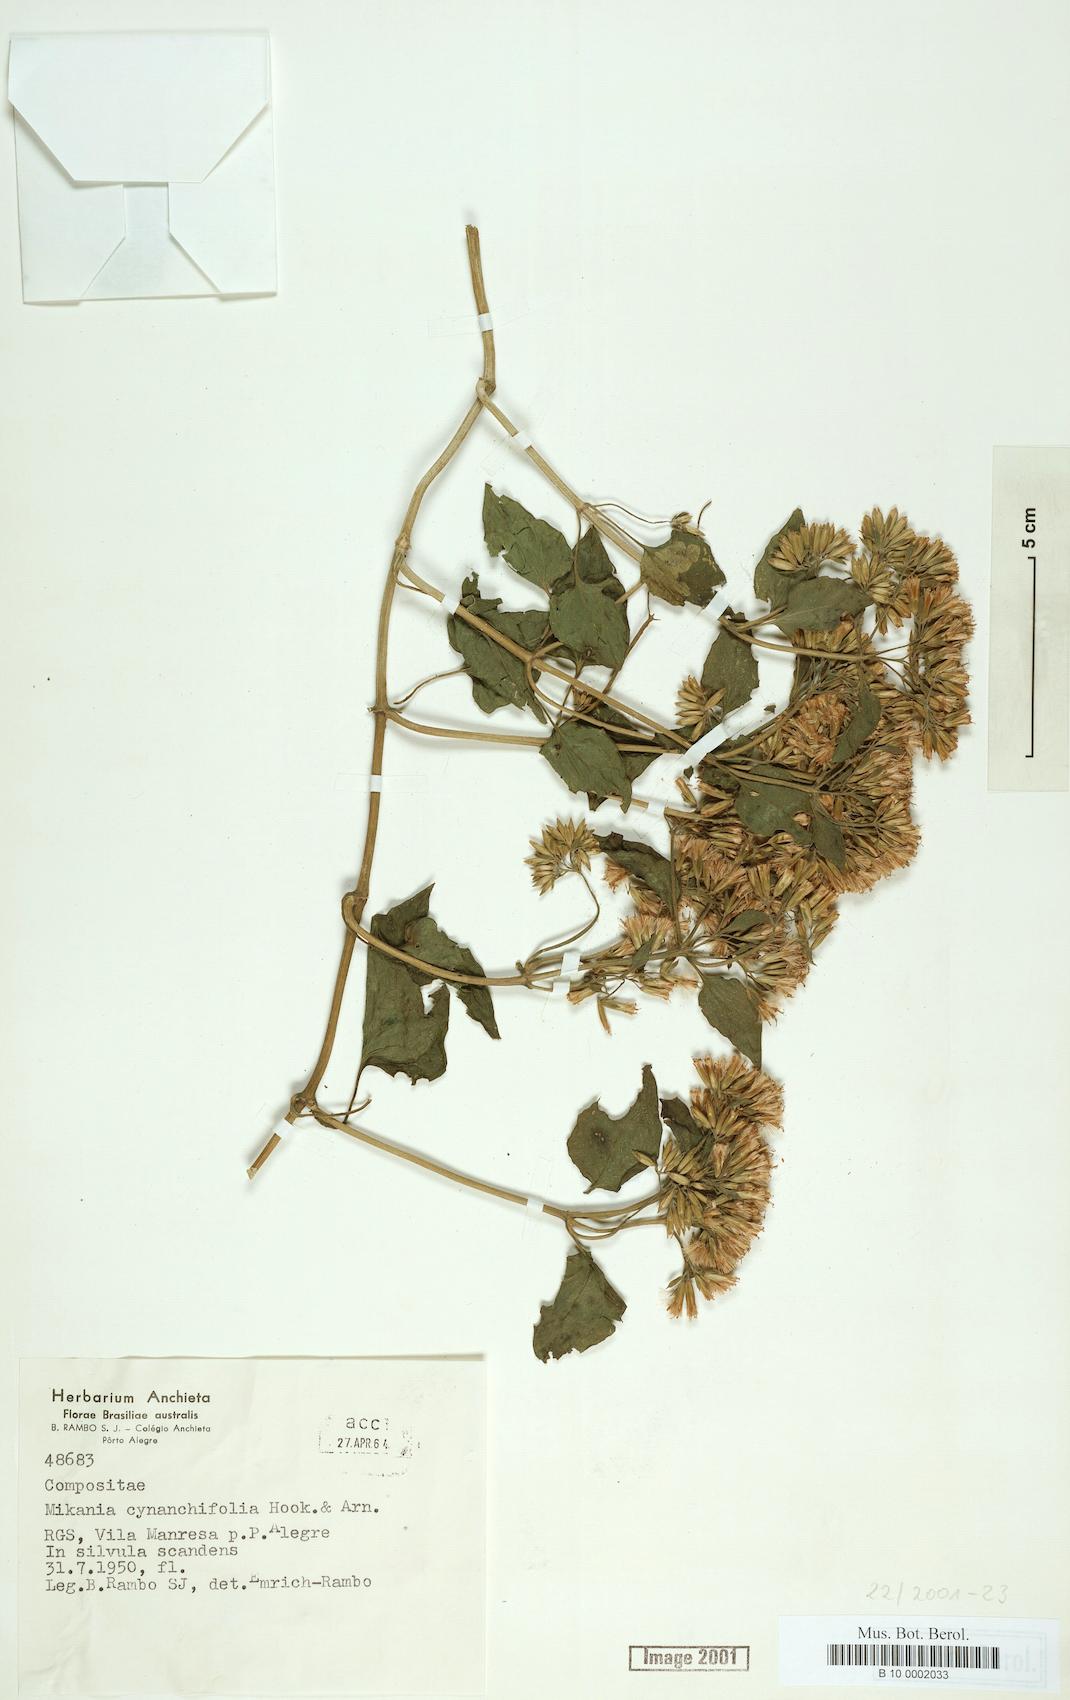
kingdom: Plantae
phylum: Tracheophyta
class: Magnoliopsida
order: Asterales
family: Asteraceae
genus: Mikania
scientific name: Mikania cynanchifolia
